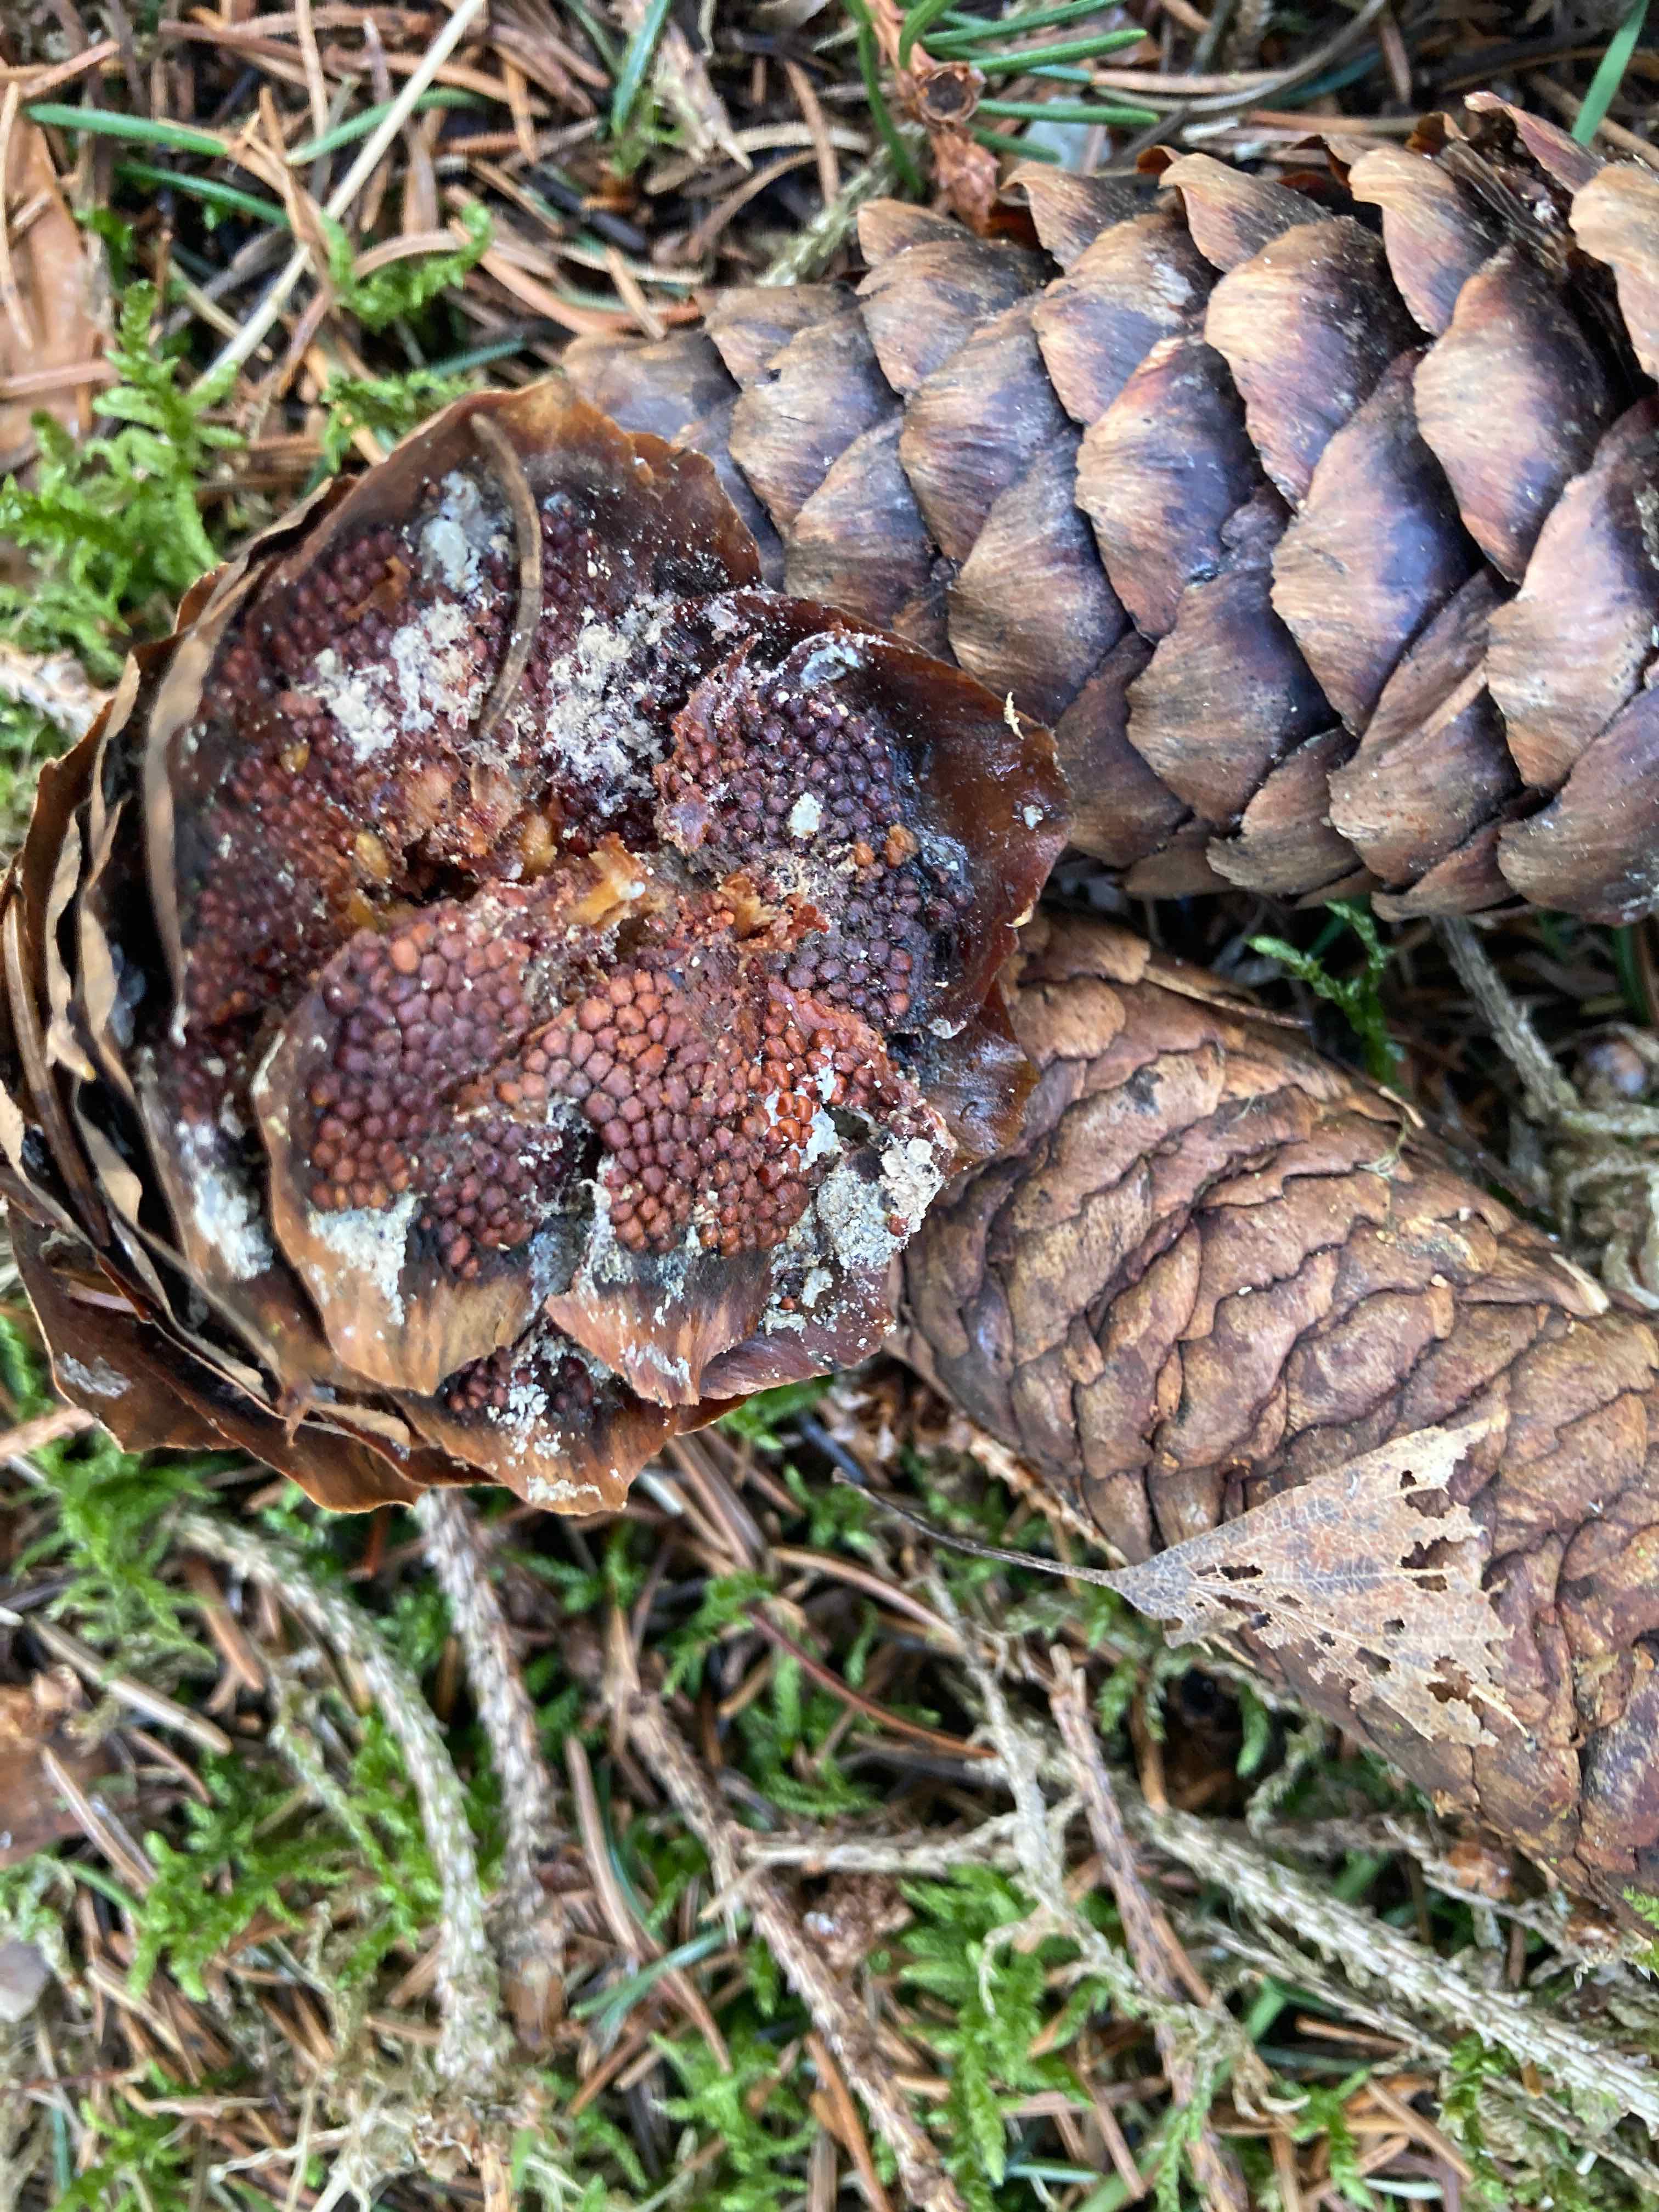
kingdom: Fungi
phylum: Basidiomycota
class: Pucciniomycetes
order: Pucciniales
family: Pucciniastraceae
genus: Thekopsora
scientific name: Thekopsora areolata
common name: grankogle-nålerust
